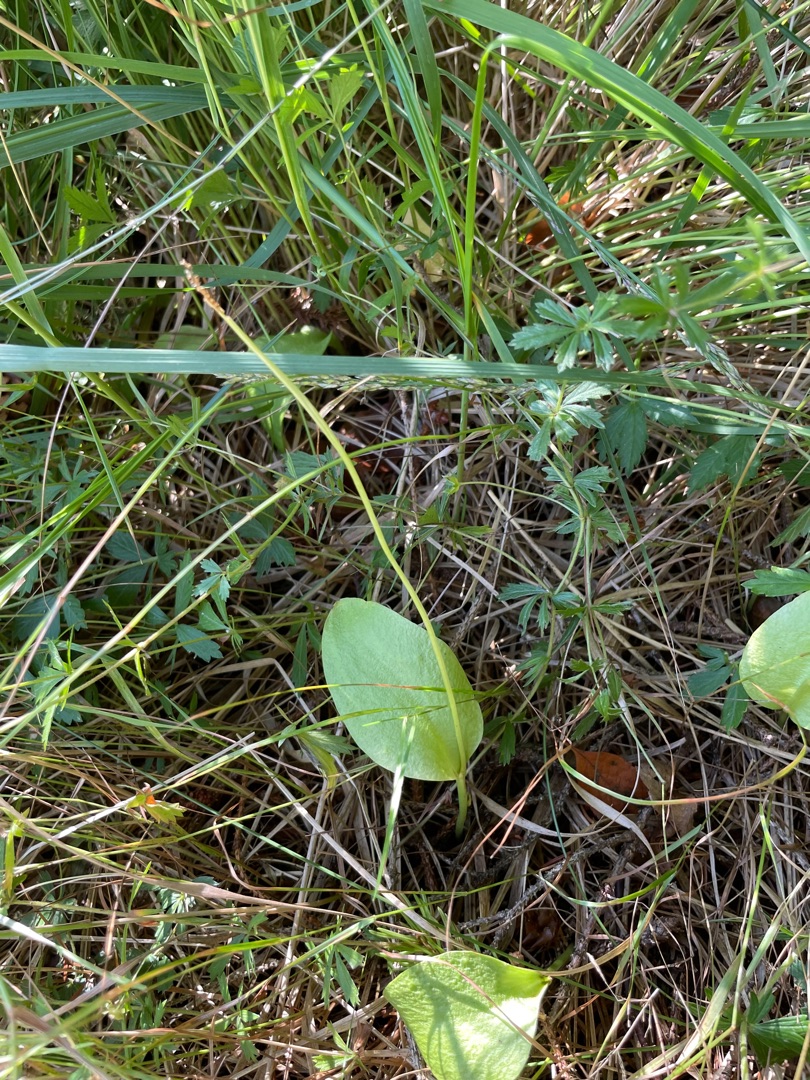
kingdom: Plantae
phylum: Tracheophyta
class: Polypodiopsida
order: Ophioglossales
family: Ophioglossaceae
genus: Ophioglossum
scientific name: Ophioglossum vulgatum
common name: Slangetunge
